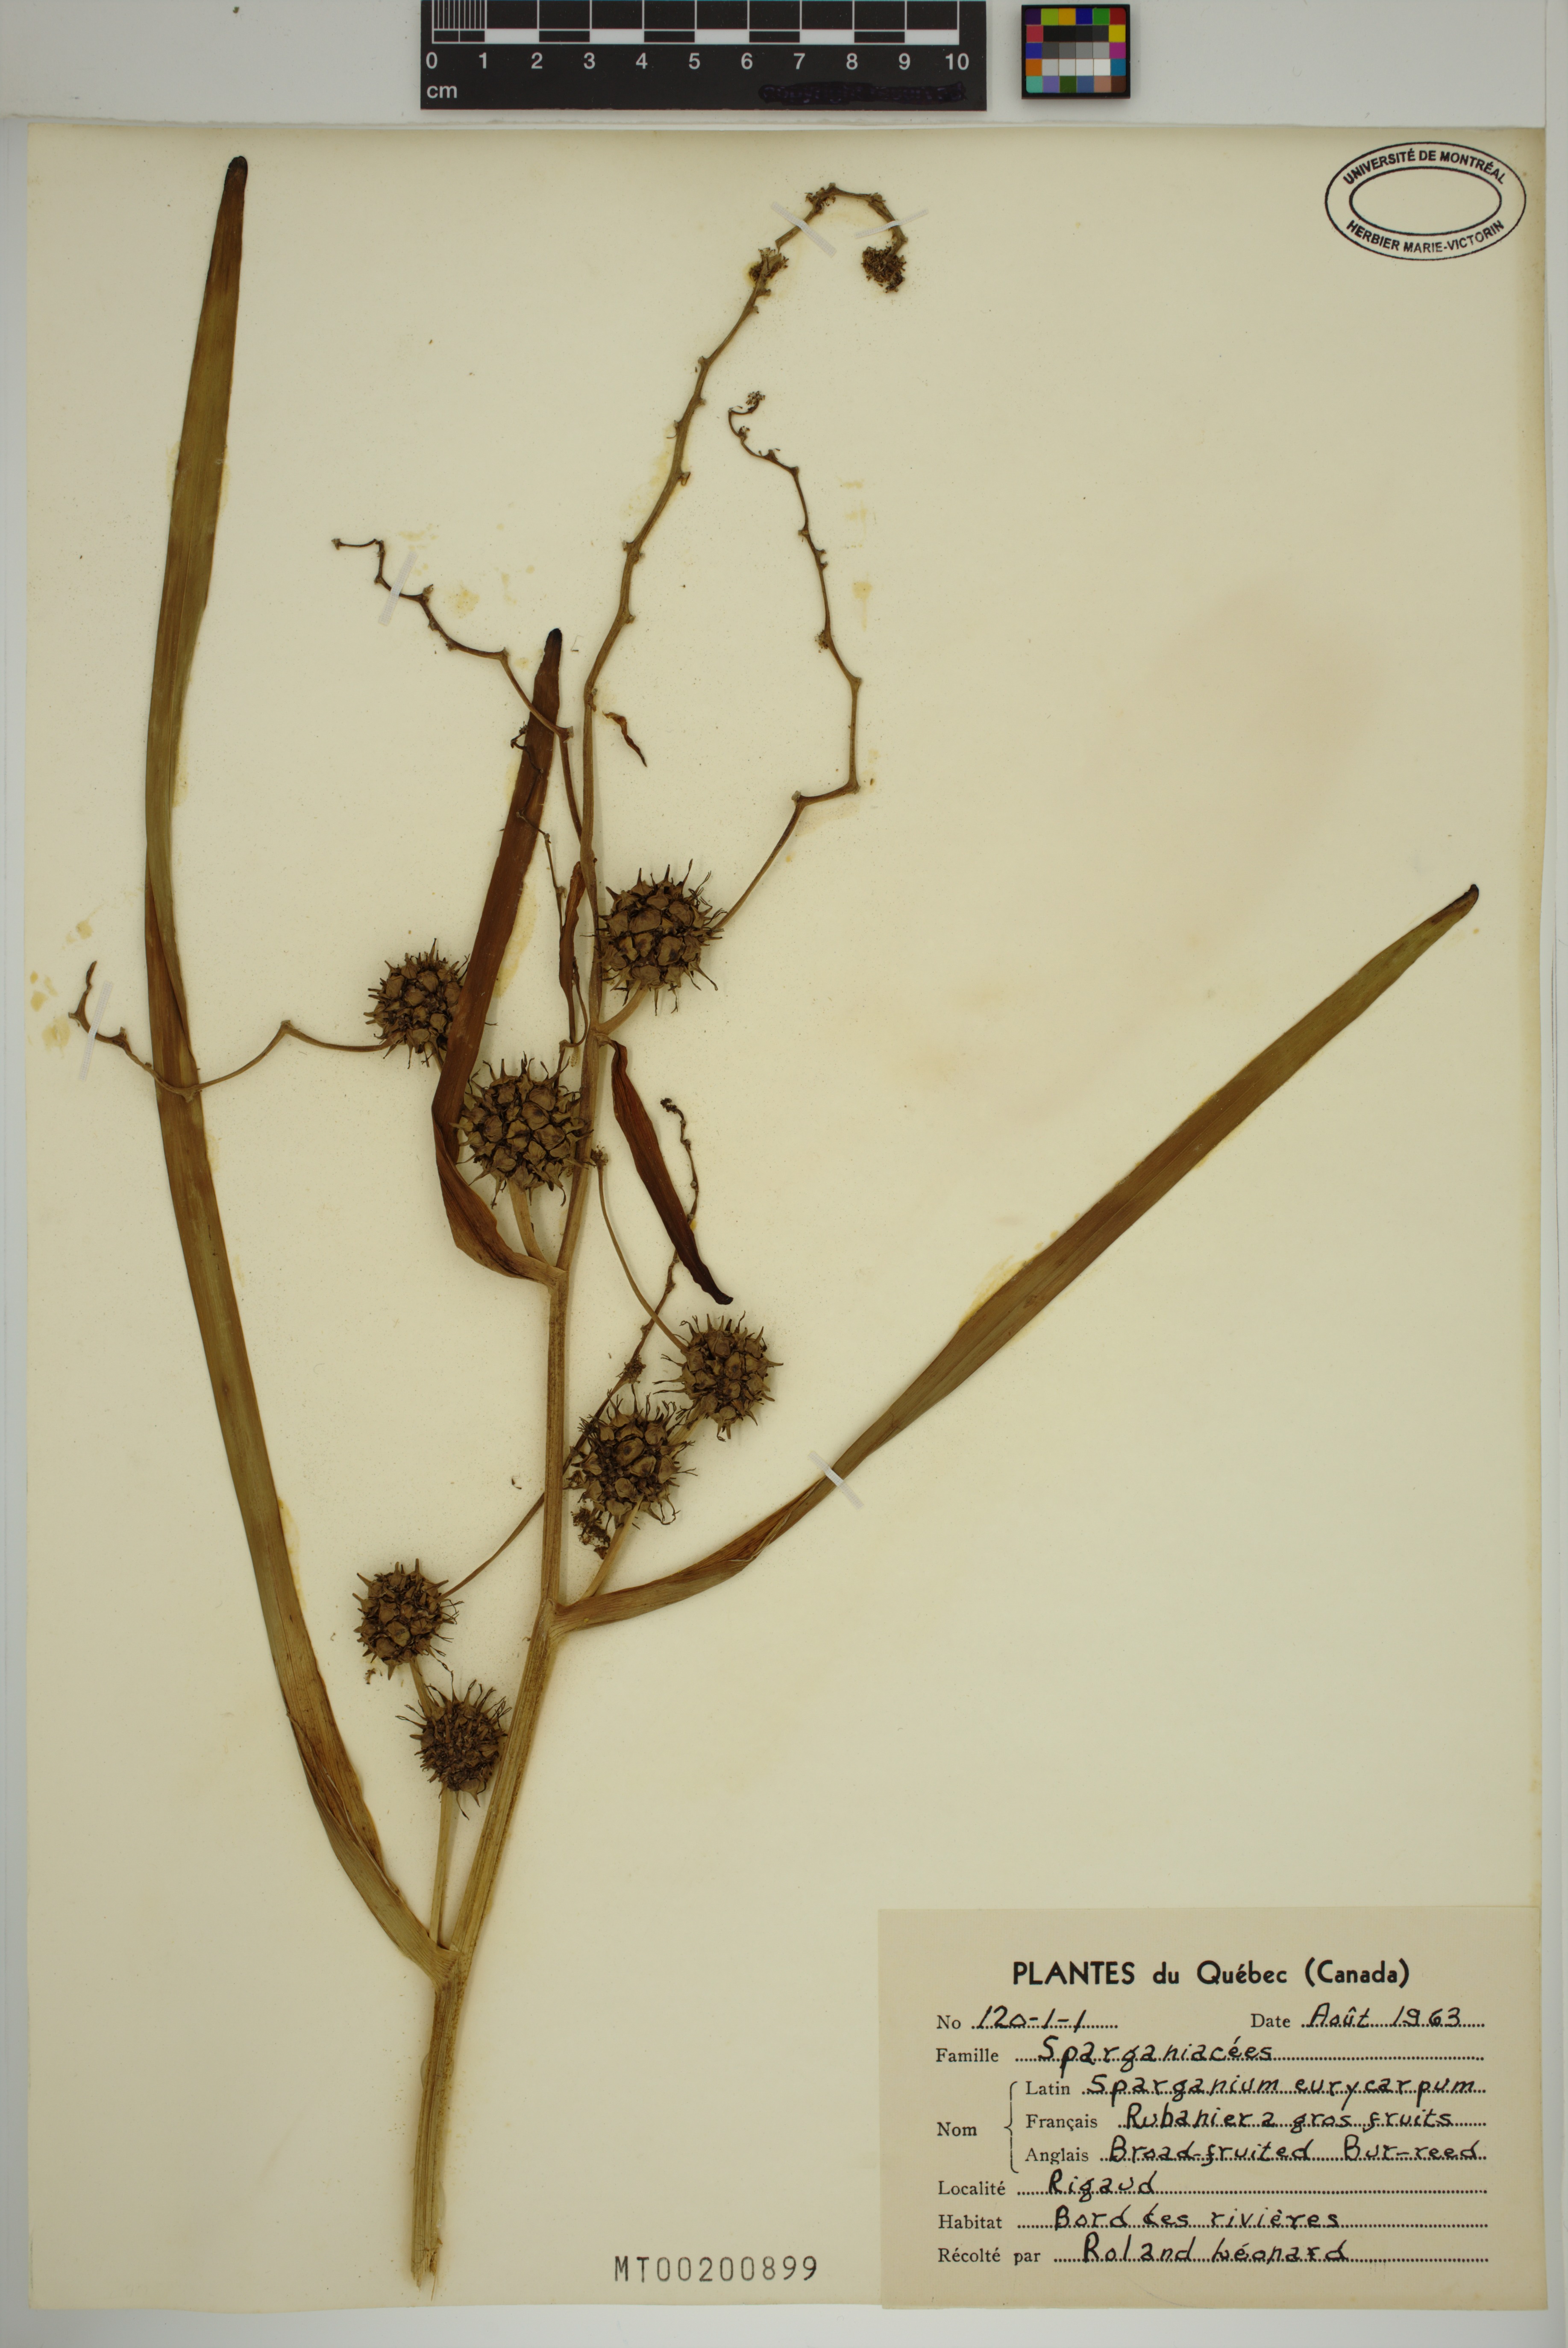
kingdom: Plantae
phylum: Tracheophyta
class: Liliopsida
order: Poales
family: Typhaceae
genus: Sparganium
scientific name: Sparganium eurycarpum
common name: Broad-fruited burreed
